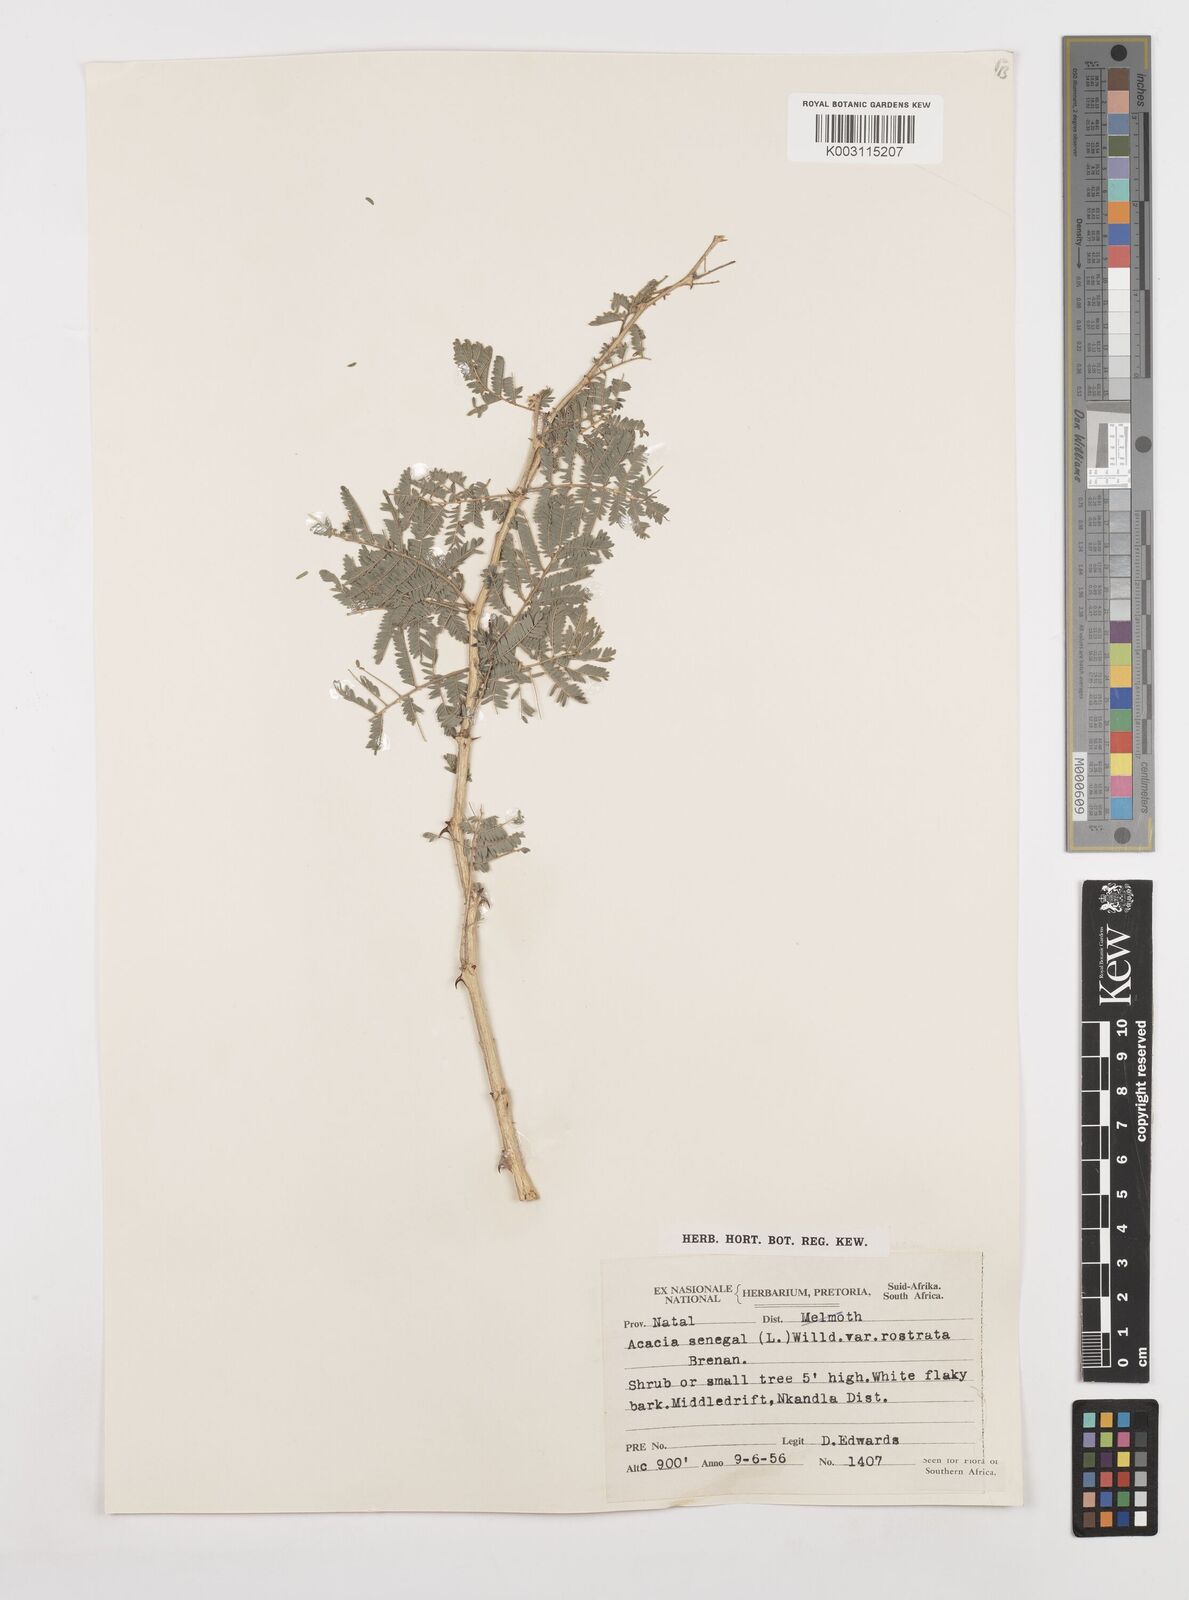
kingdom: Plantae
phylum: Tracheophyta
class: Magnoliopsida
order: Fabales
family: Fabaceae
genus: Senegalia
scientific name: Senegalia senegal
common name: Senegal-gum
